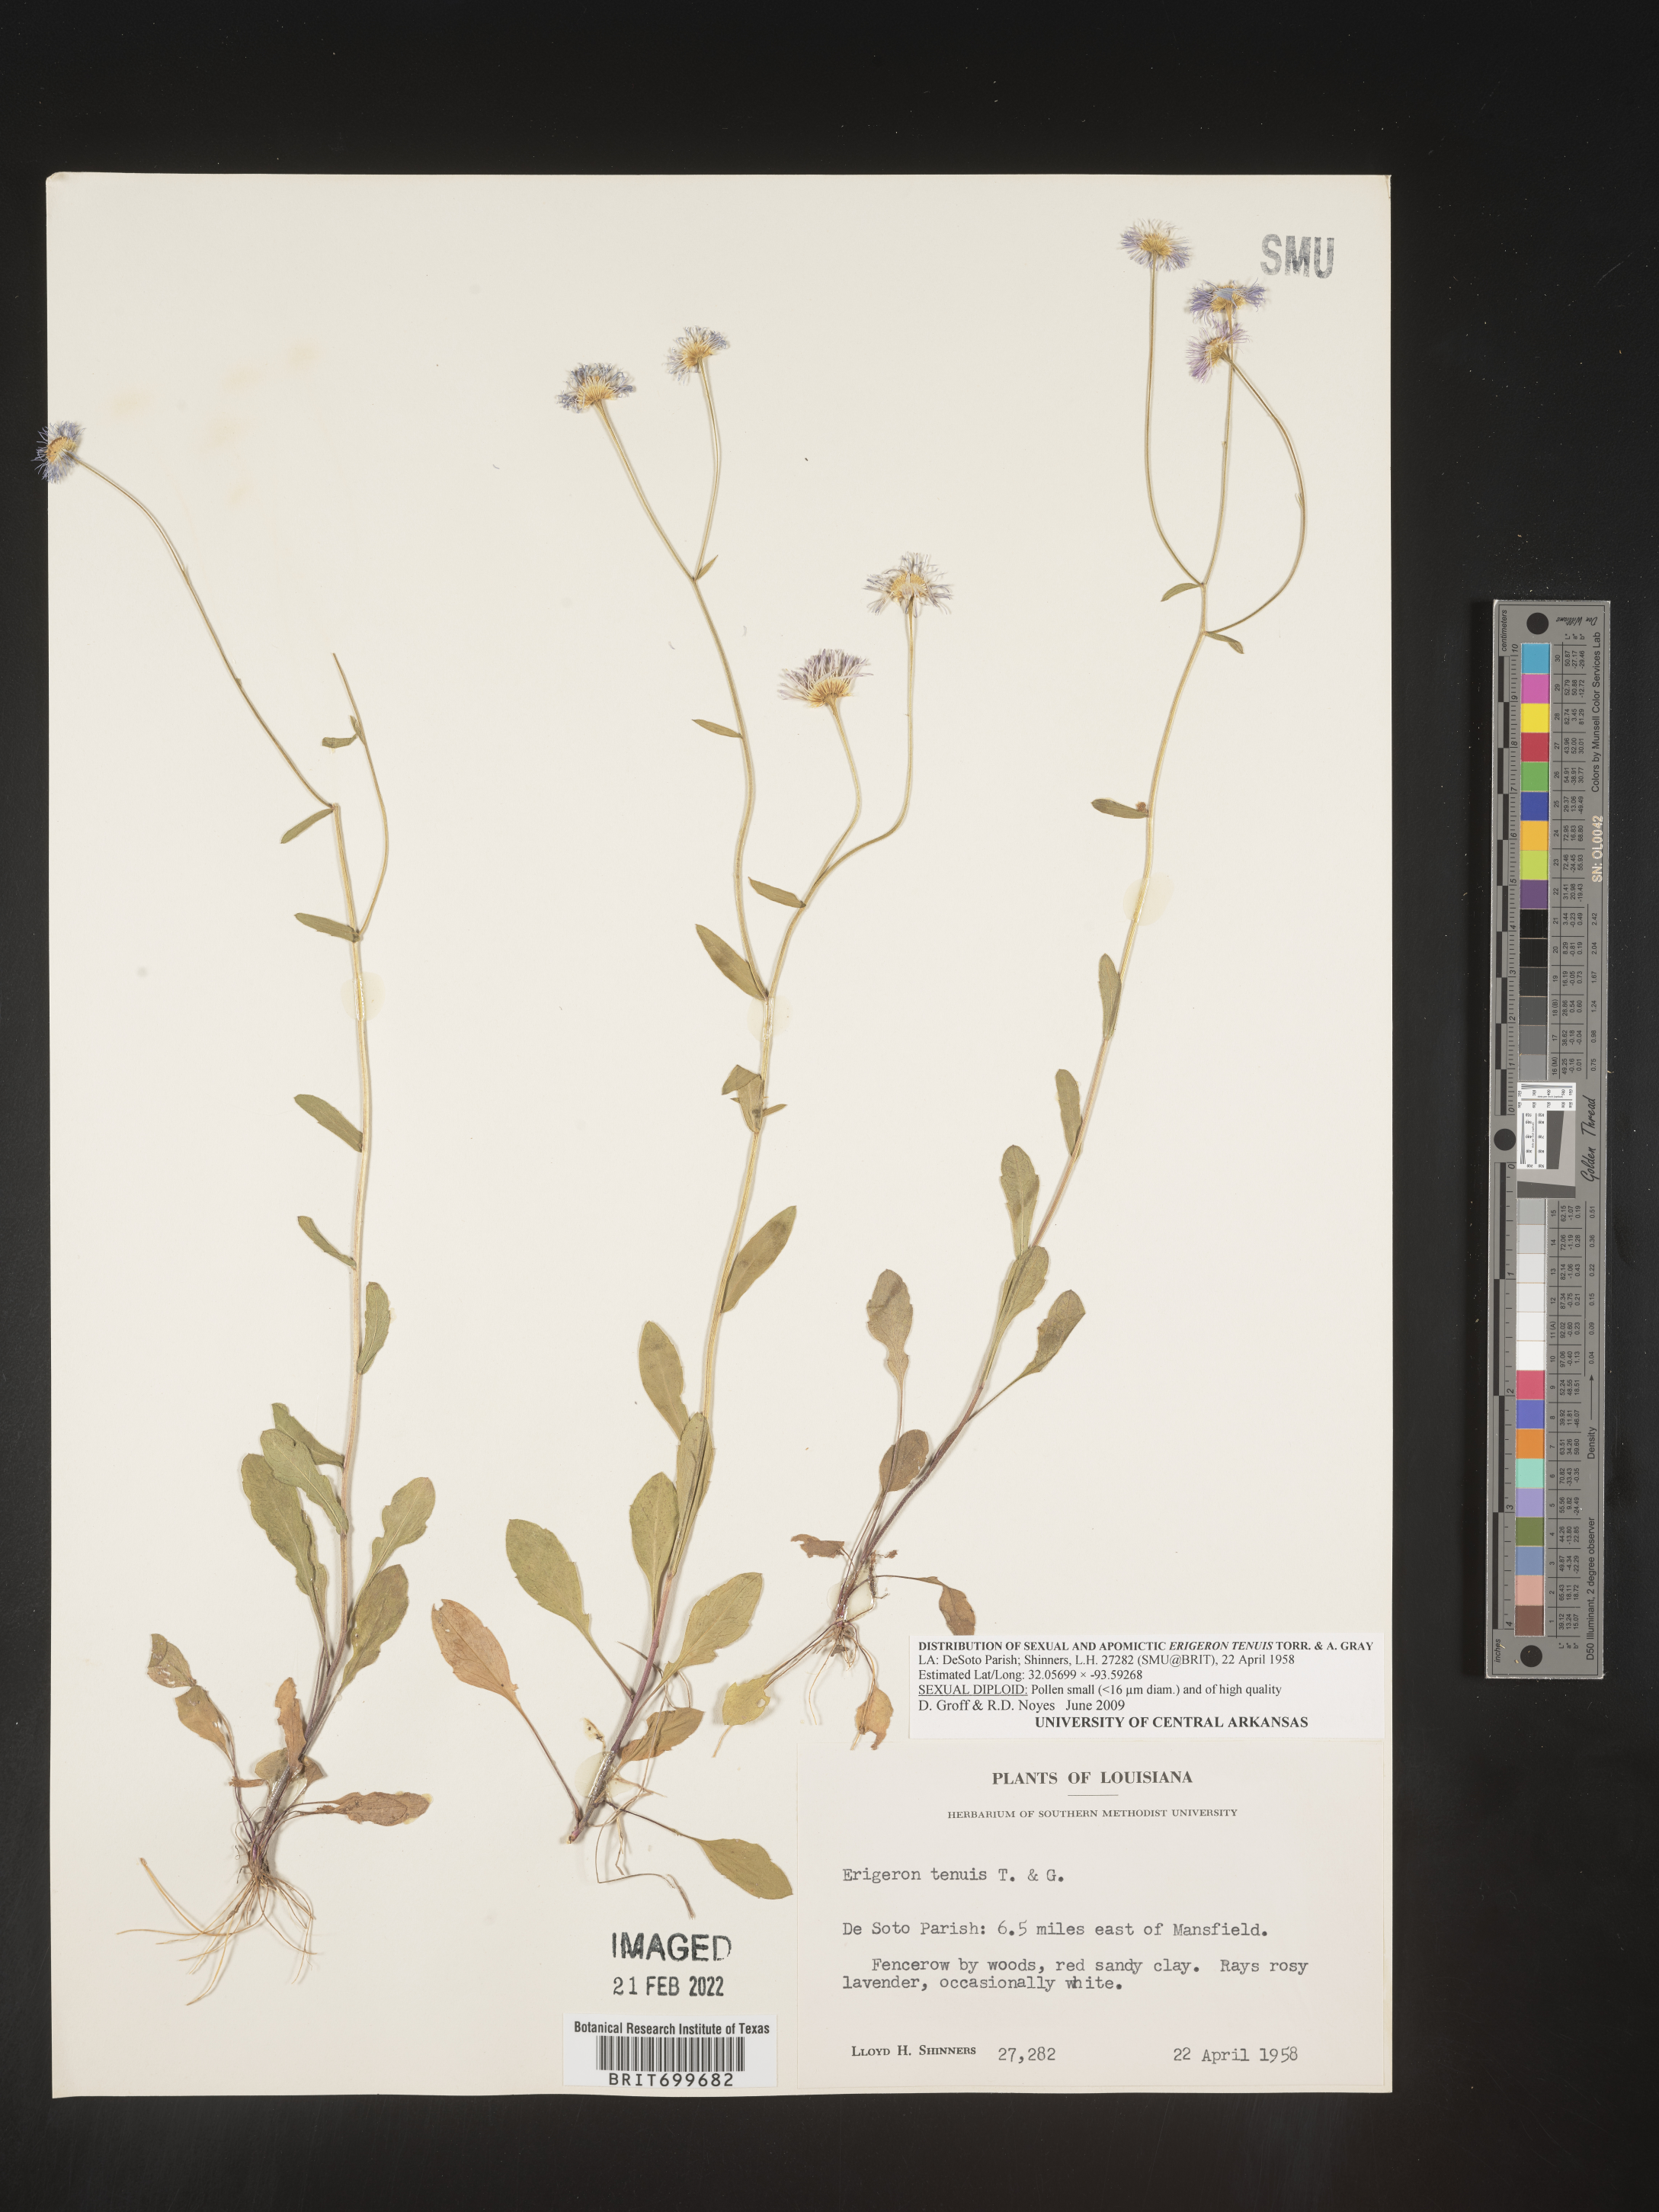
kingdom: Plantae
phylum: Tracheophyta
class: Magnoliopsida
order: Asterales
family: Asteraceae
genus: Erigeron
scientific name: Erigeron tenuis
